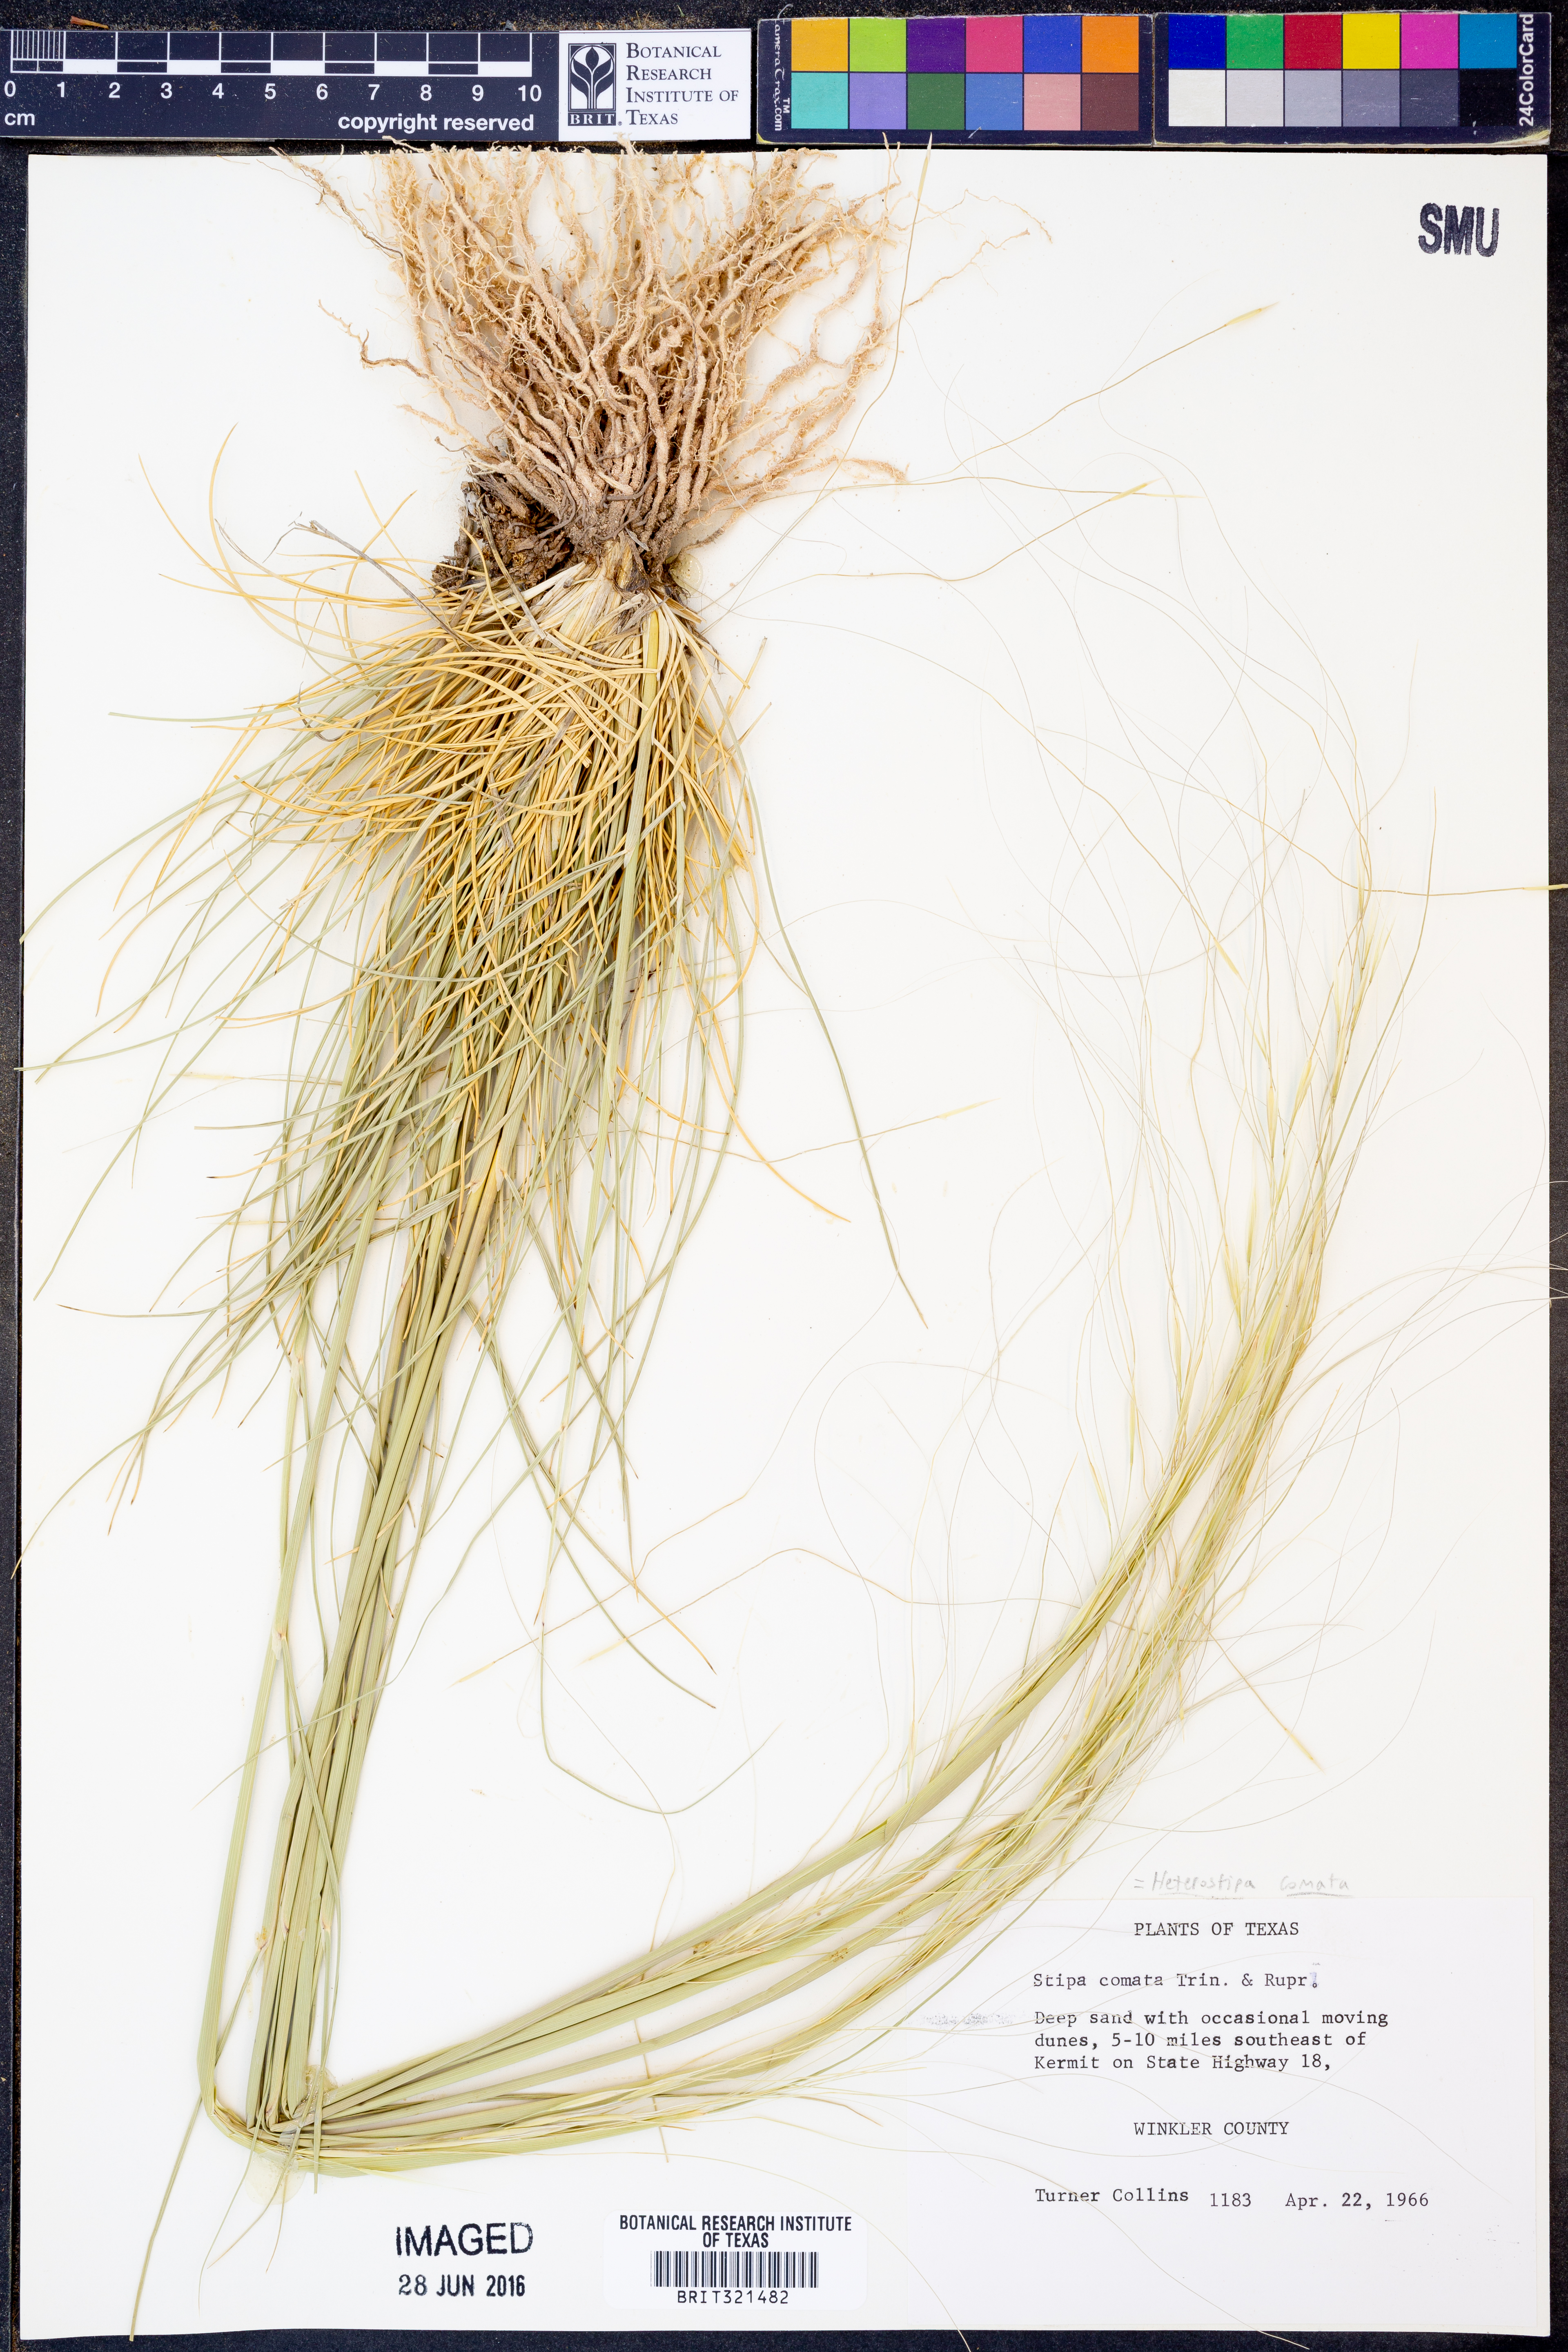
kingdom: Plantae
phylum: Tracheophyta
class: Liliopsida
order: Poales
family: Poaceae
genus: Hesperostipa
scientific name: Hesperostipa comata
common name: Needle-and-thread grass
